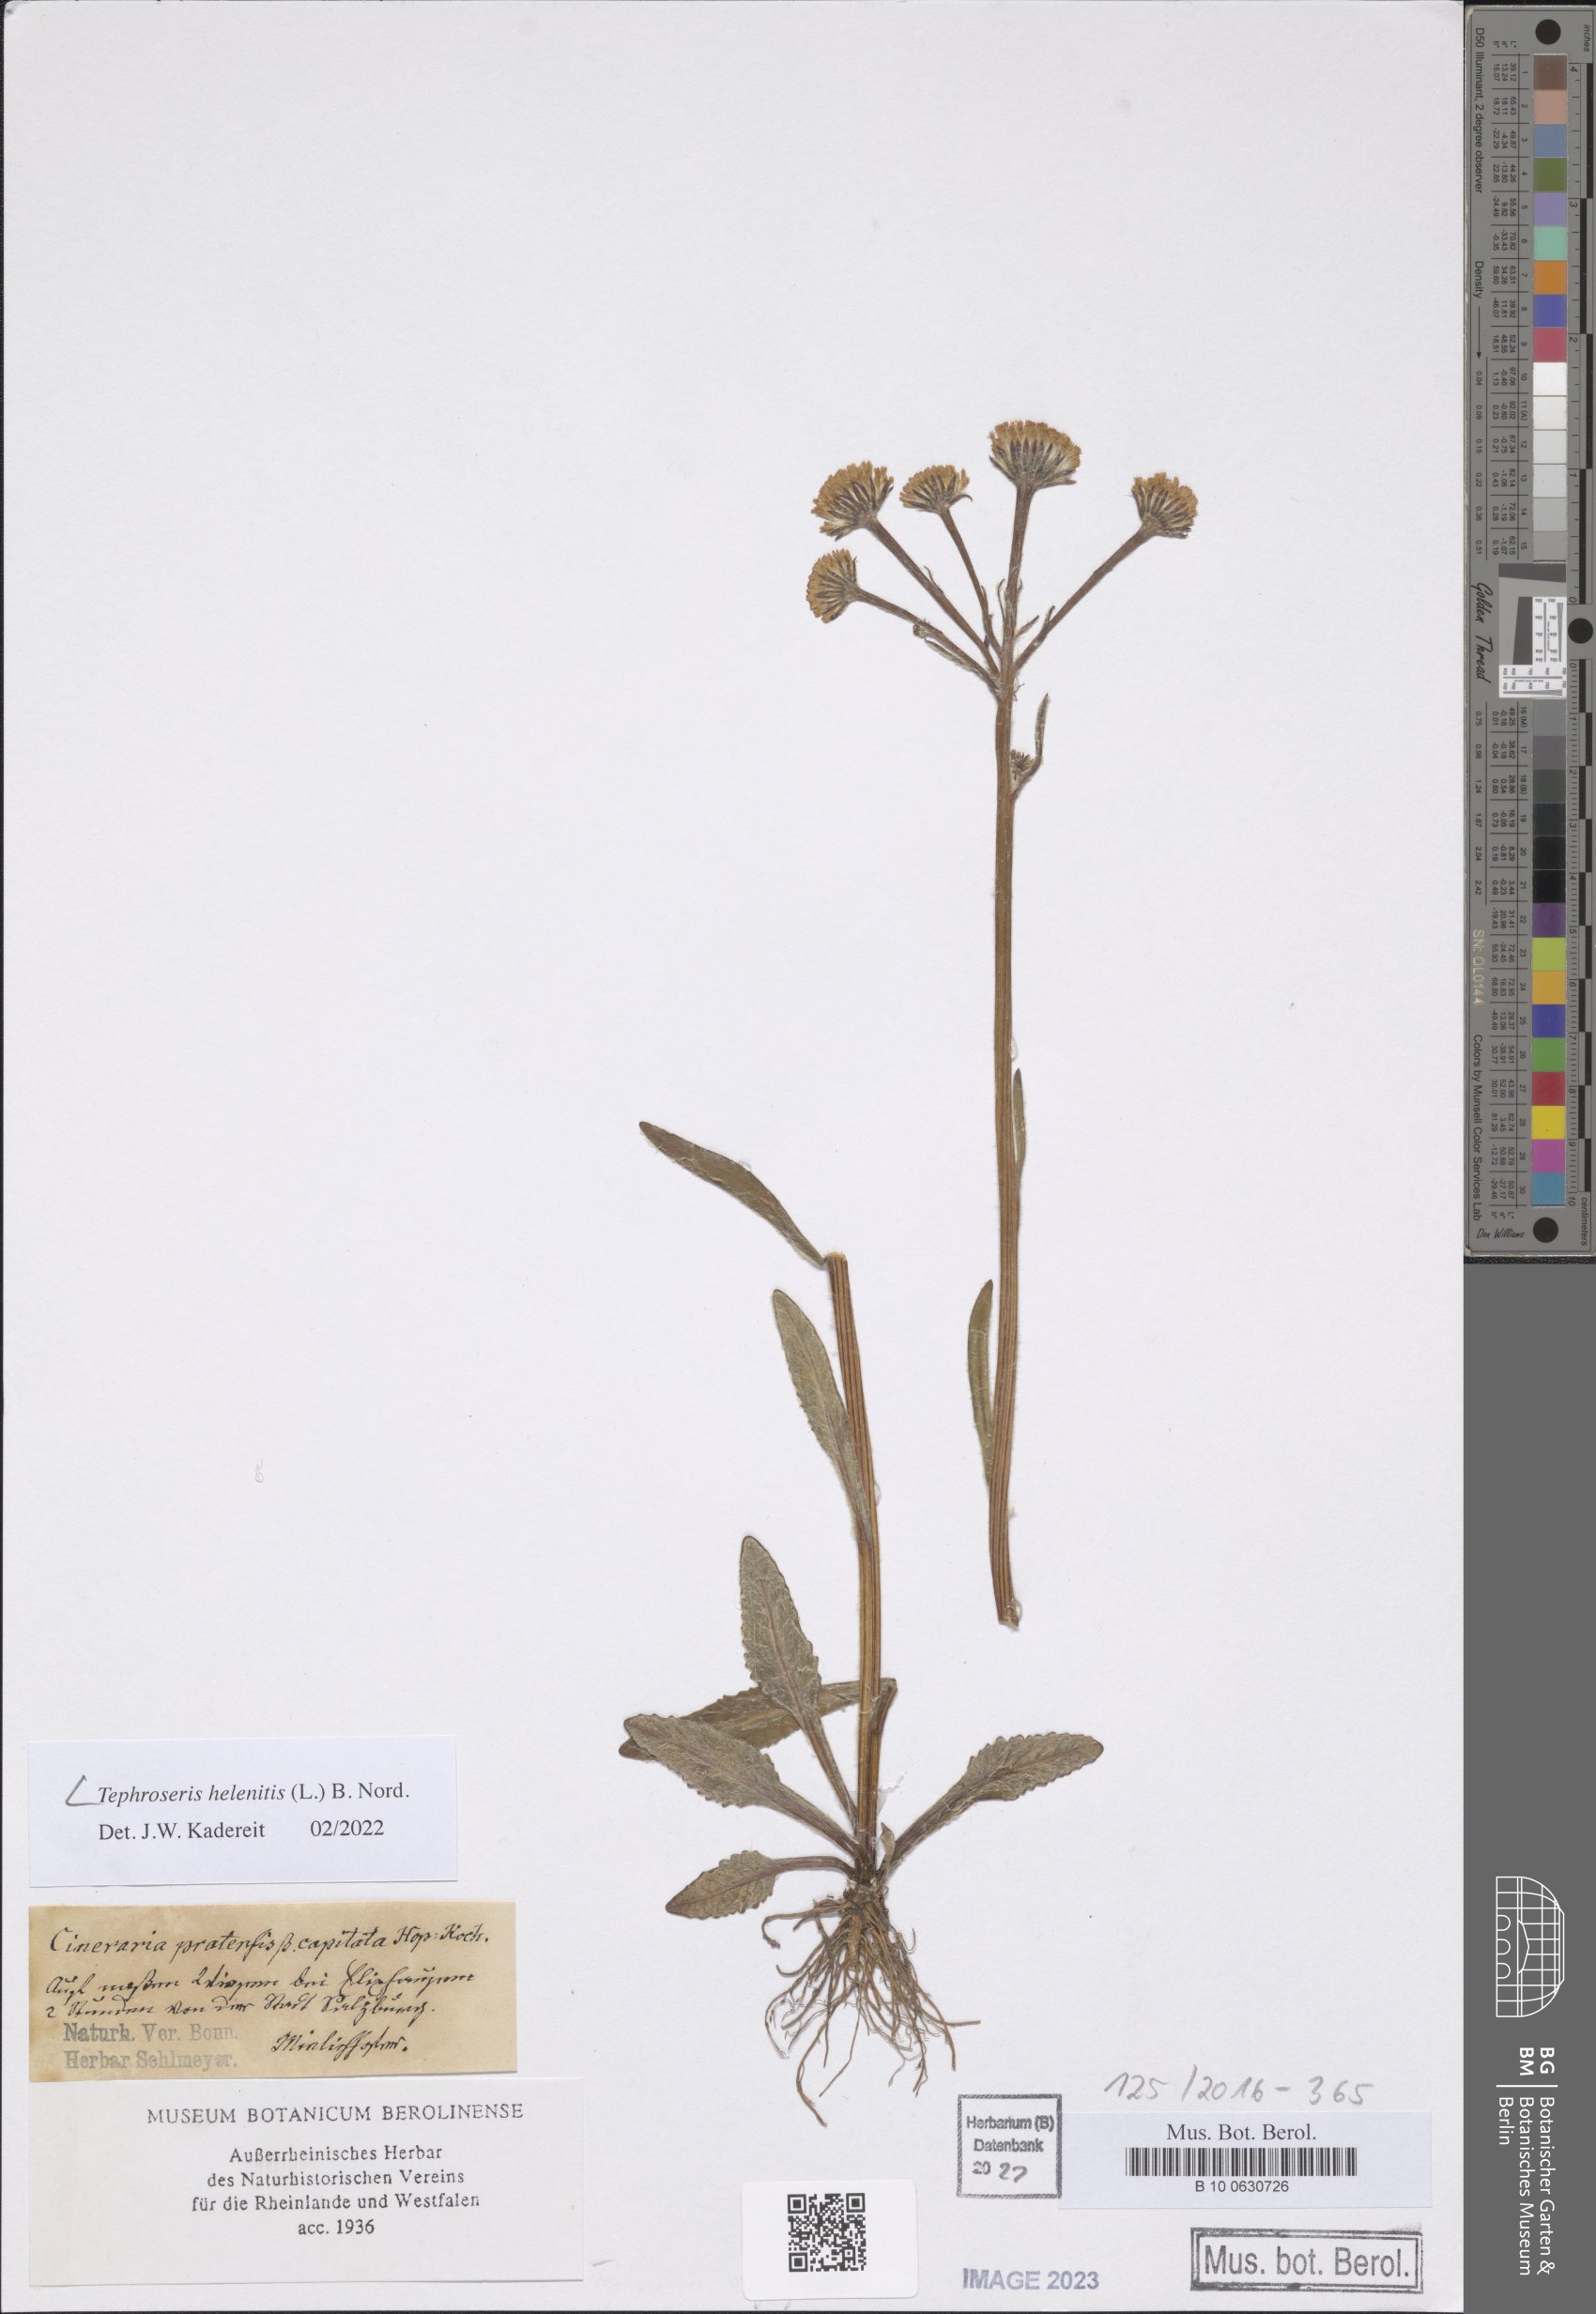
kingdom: Plantae
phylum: Tracheophyta
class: Magnoliopsida
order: Asterales
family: Asteraceae
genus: Tephroseris
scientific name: Tephroseris helenitis
